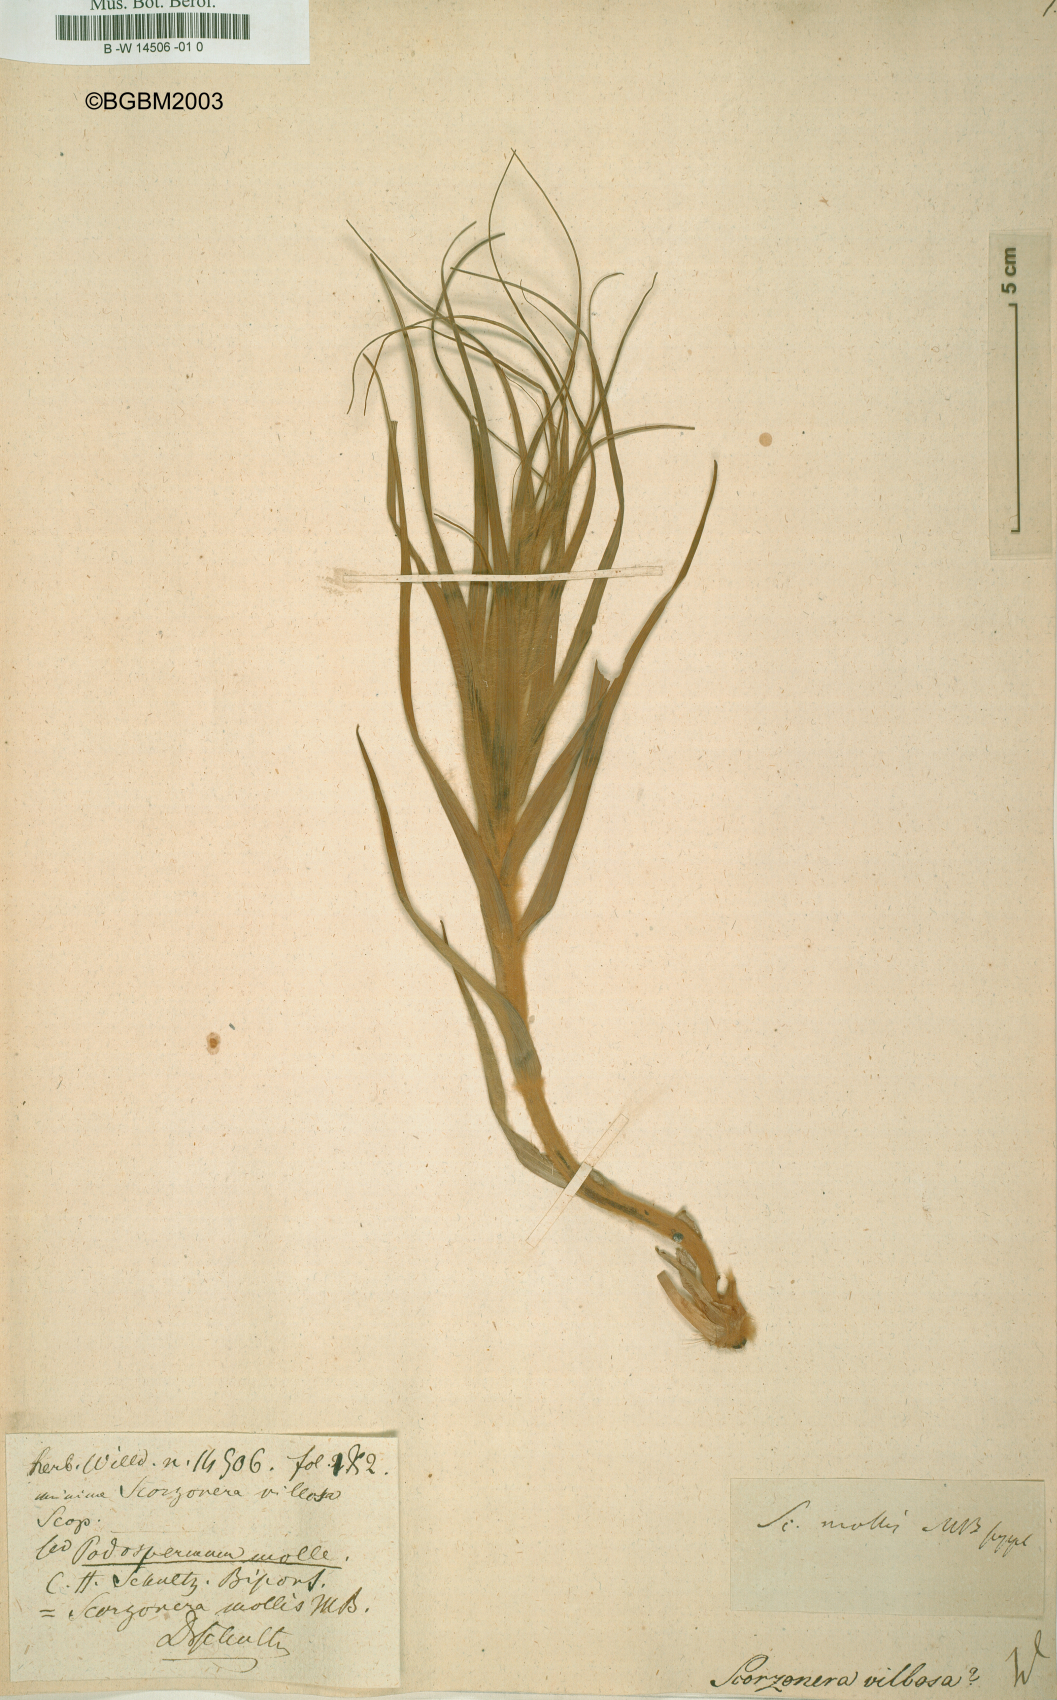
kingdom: Plantae
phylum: Tracheophyta
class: Magnoliopsida
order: Asterales
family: Asteraceae
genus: Gelasia
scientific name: Gelasia villosa
